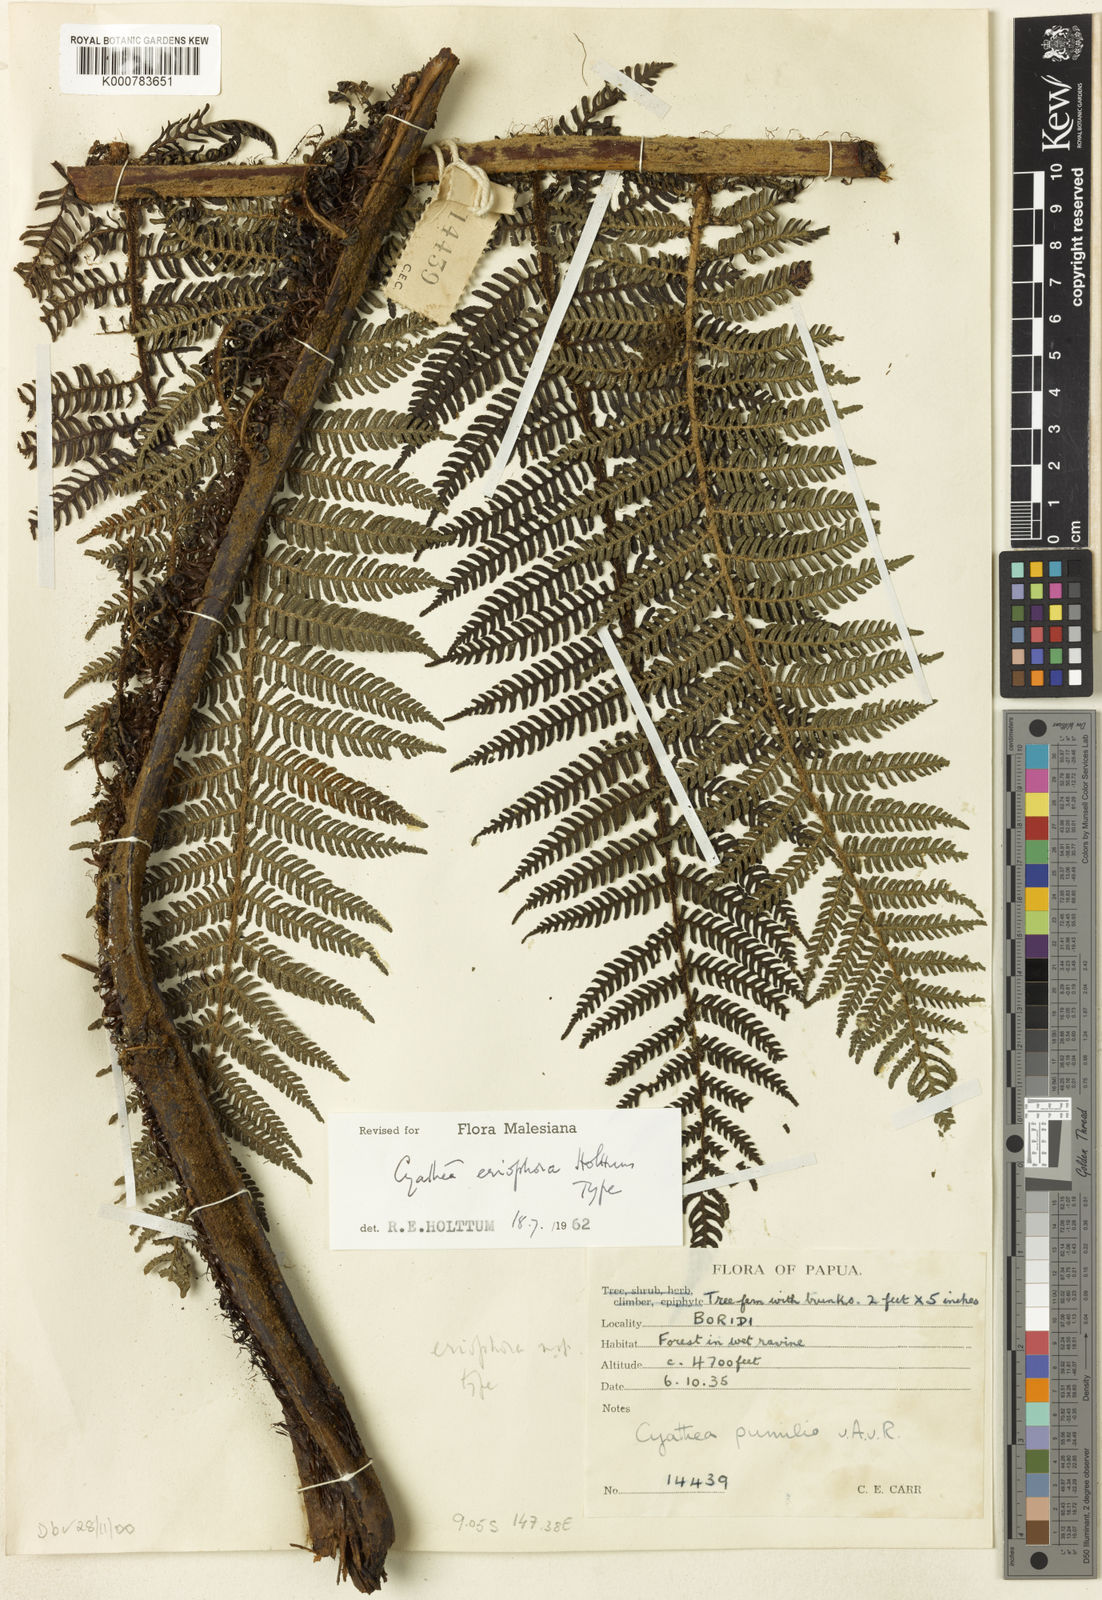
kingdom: Plantae
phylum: Tracheophyta
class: Polypodiopsida
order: Cyatheales
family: Cyatheaceae
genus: Alsophila
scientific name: Alsophila eriophora
